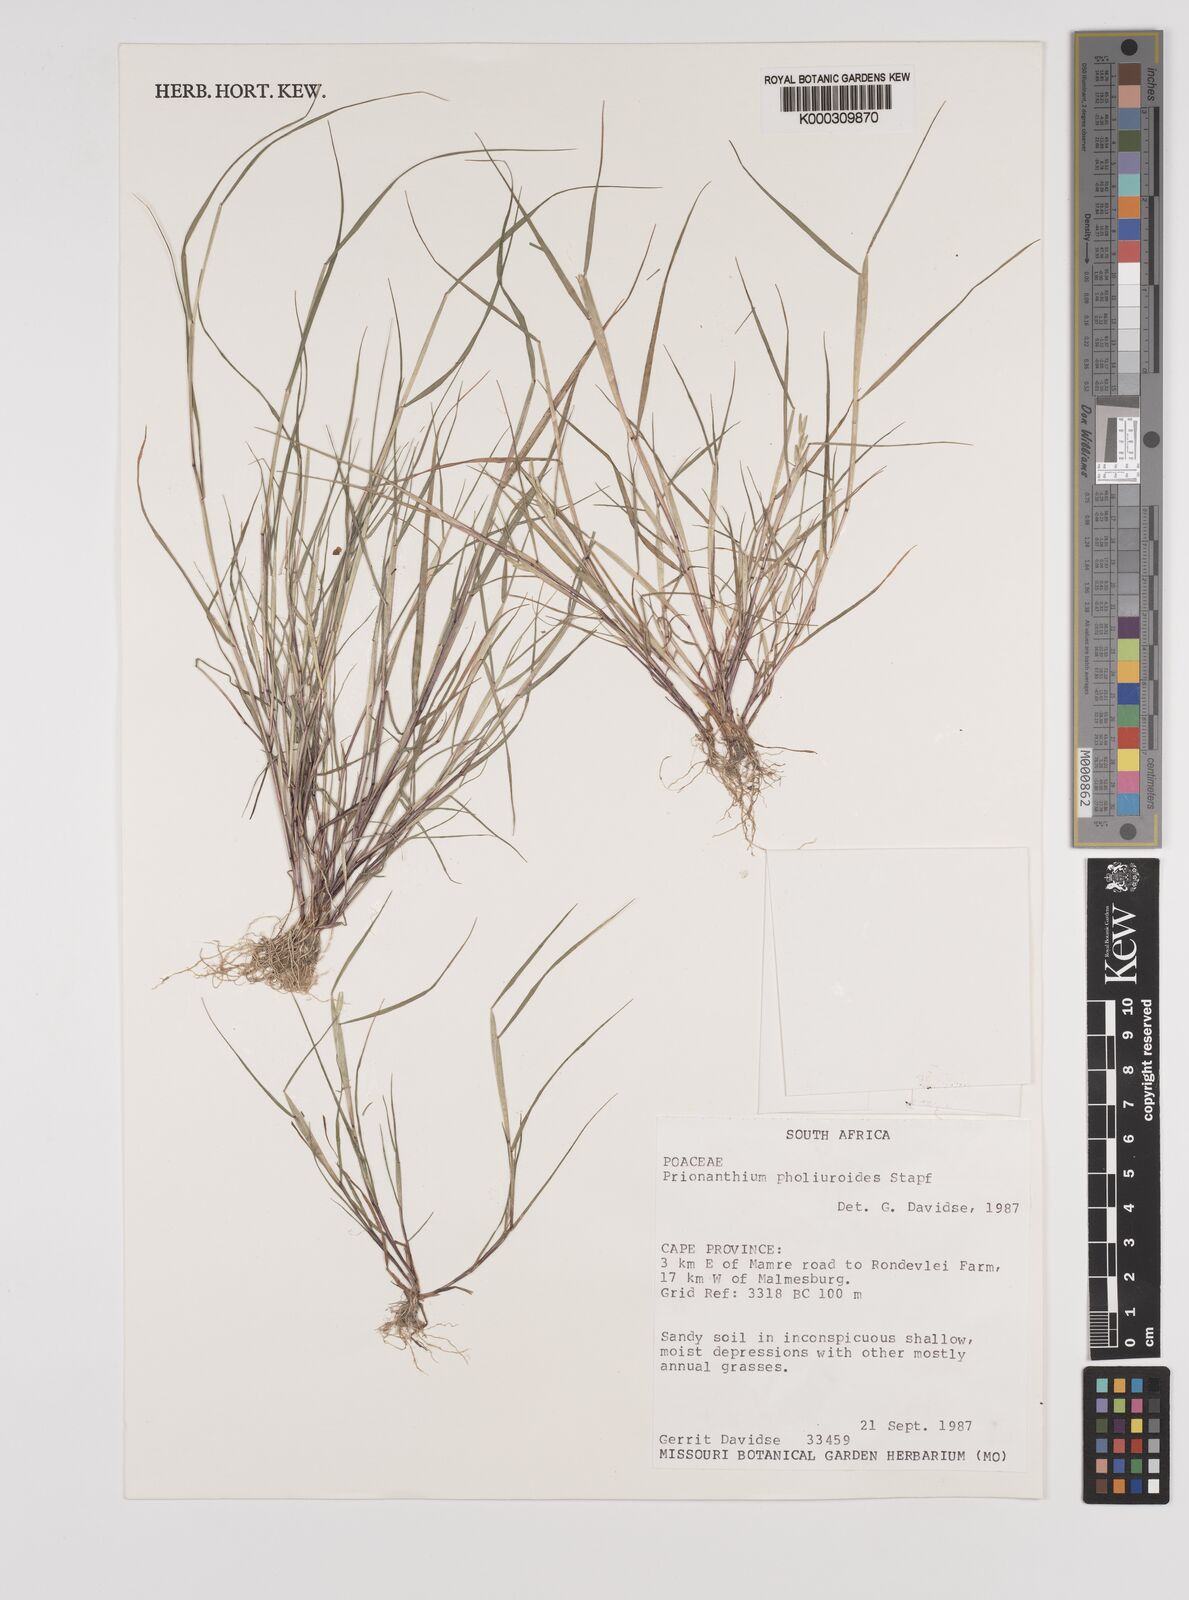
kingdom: Plantae
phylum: Tracheophyta
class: Liliopsida
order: Poales
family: Poaceae
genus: Pentameris
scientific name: Pentameris pholiuroides
